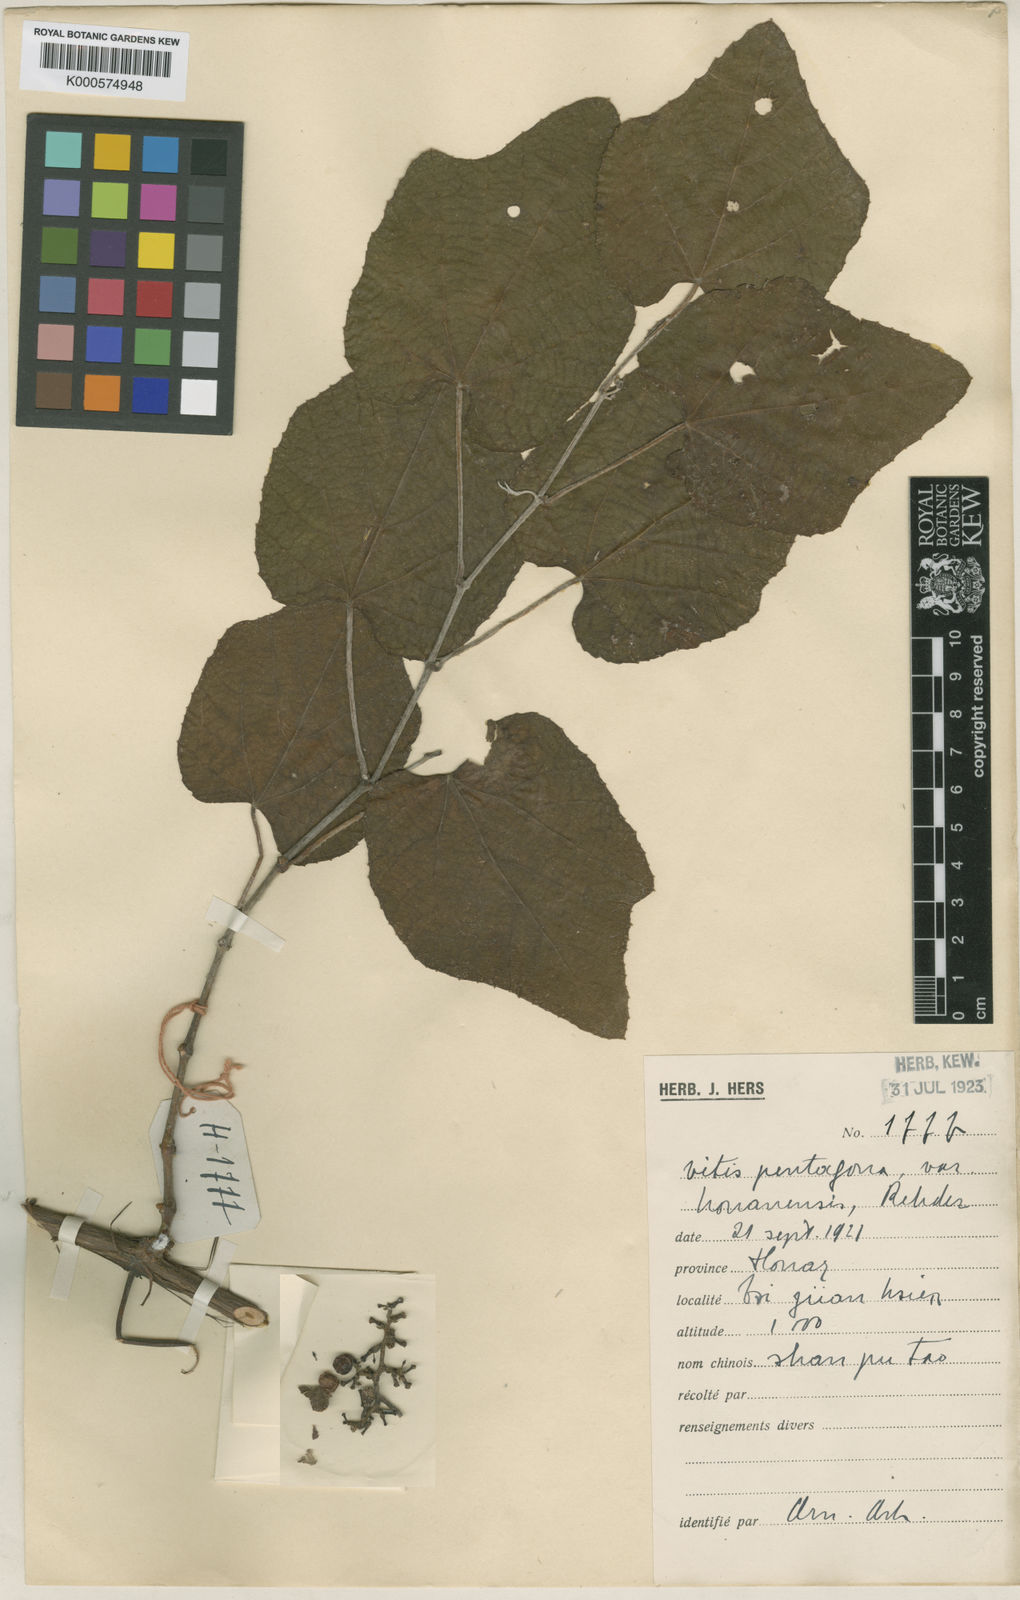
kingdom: Plantae
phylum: Tracheophyta
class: Magnoliopsida
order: Vitales
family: Vitaceae
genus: Cissus
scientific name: Cissus pentagona
